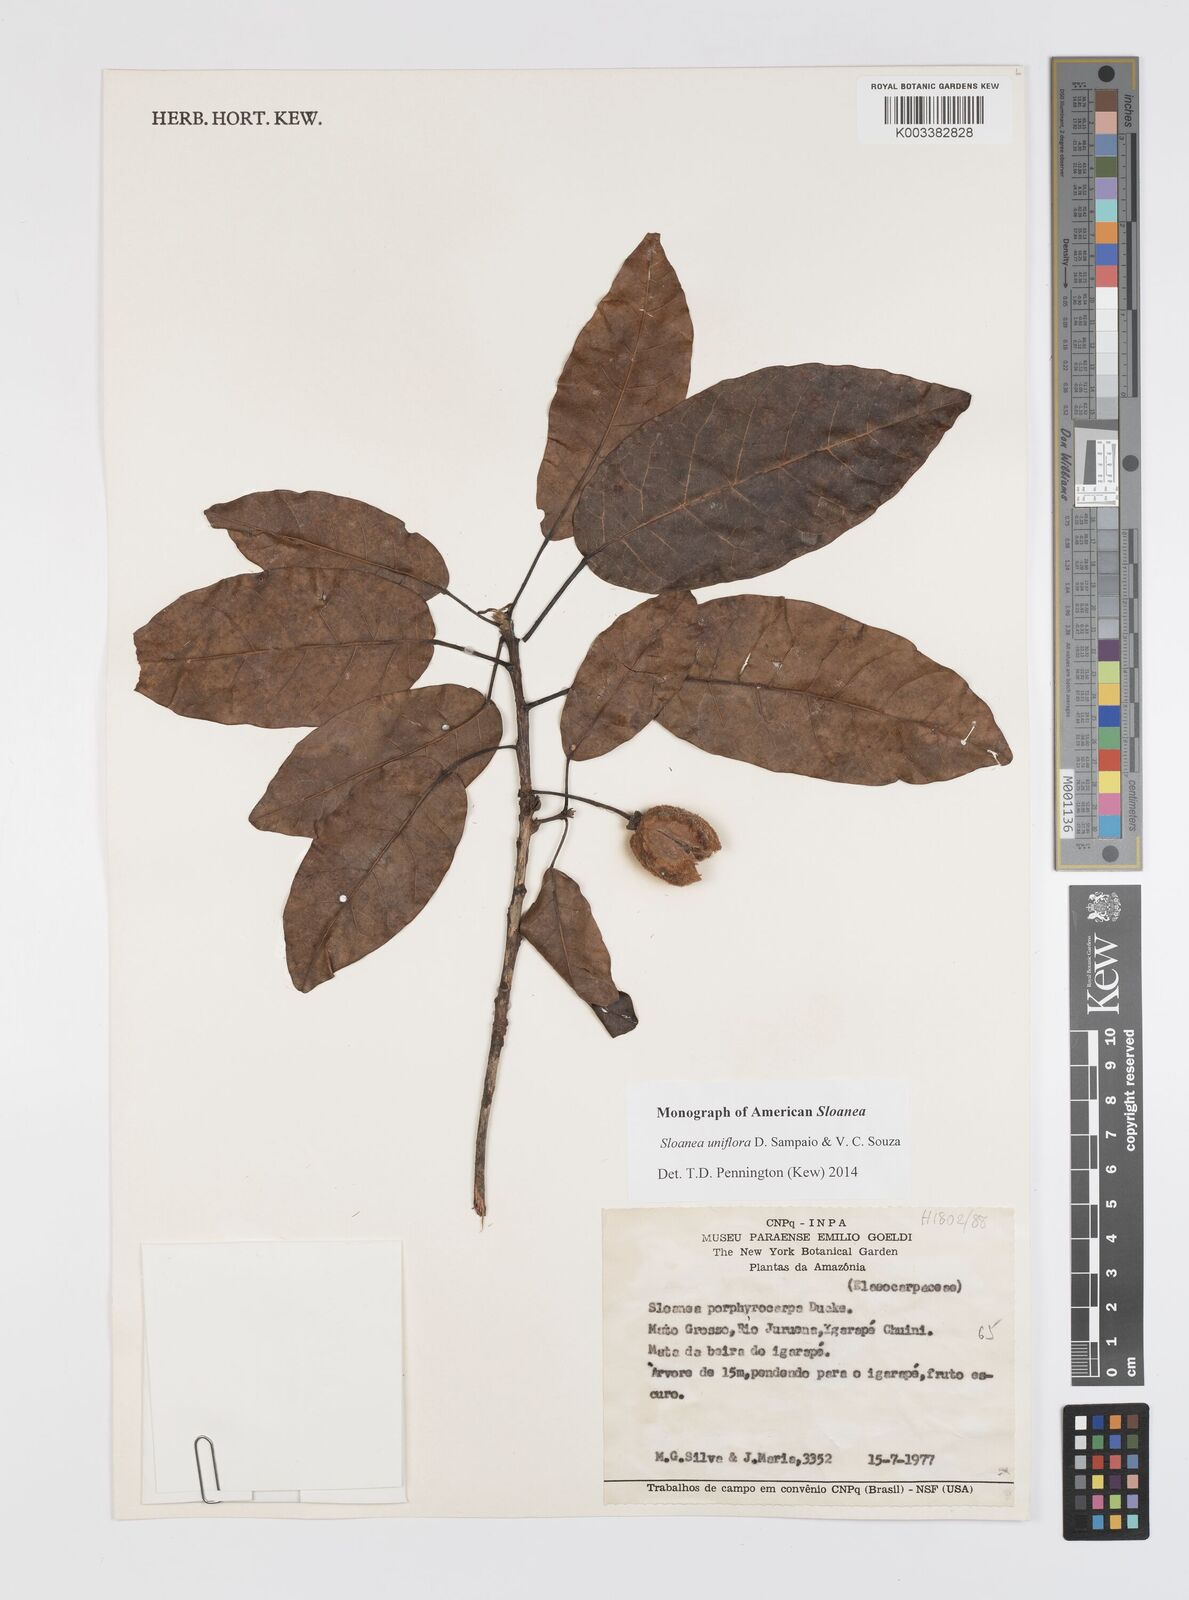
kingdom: Plantae
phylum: Tracheophyta
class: Magnoliopsida
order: Oxalidales
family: Elaeocarpaceae
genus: Sloanea
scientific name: Sloanea uniflora
